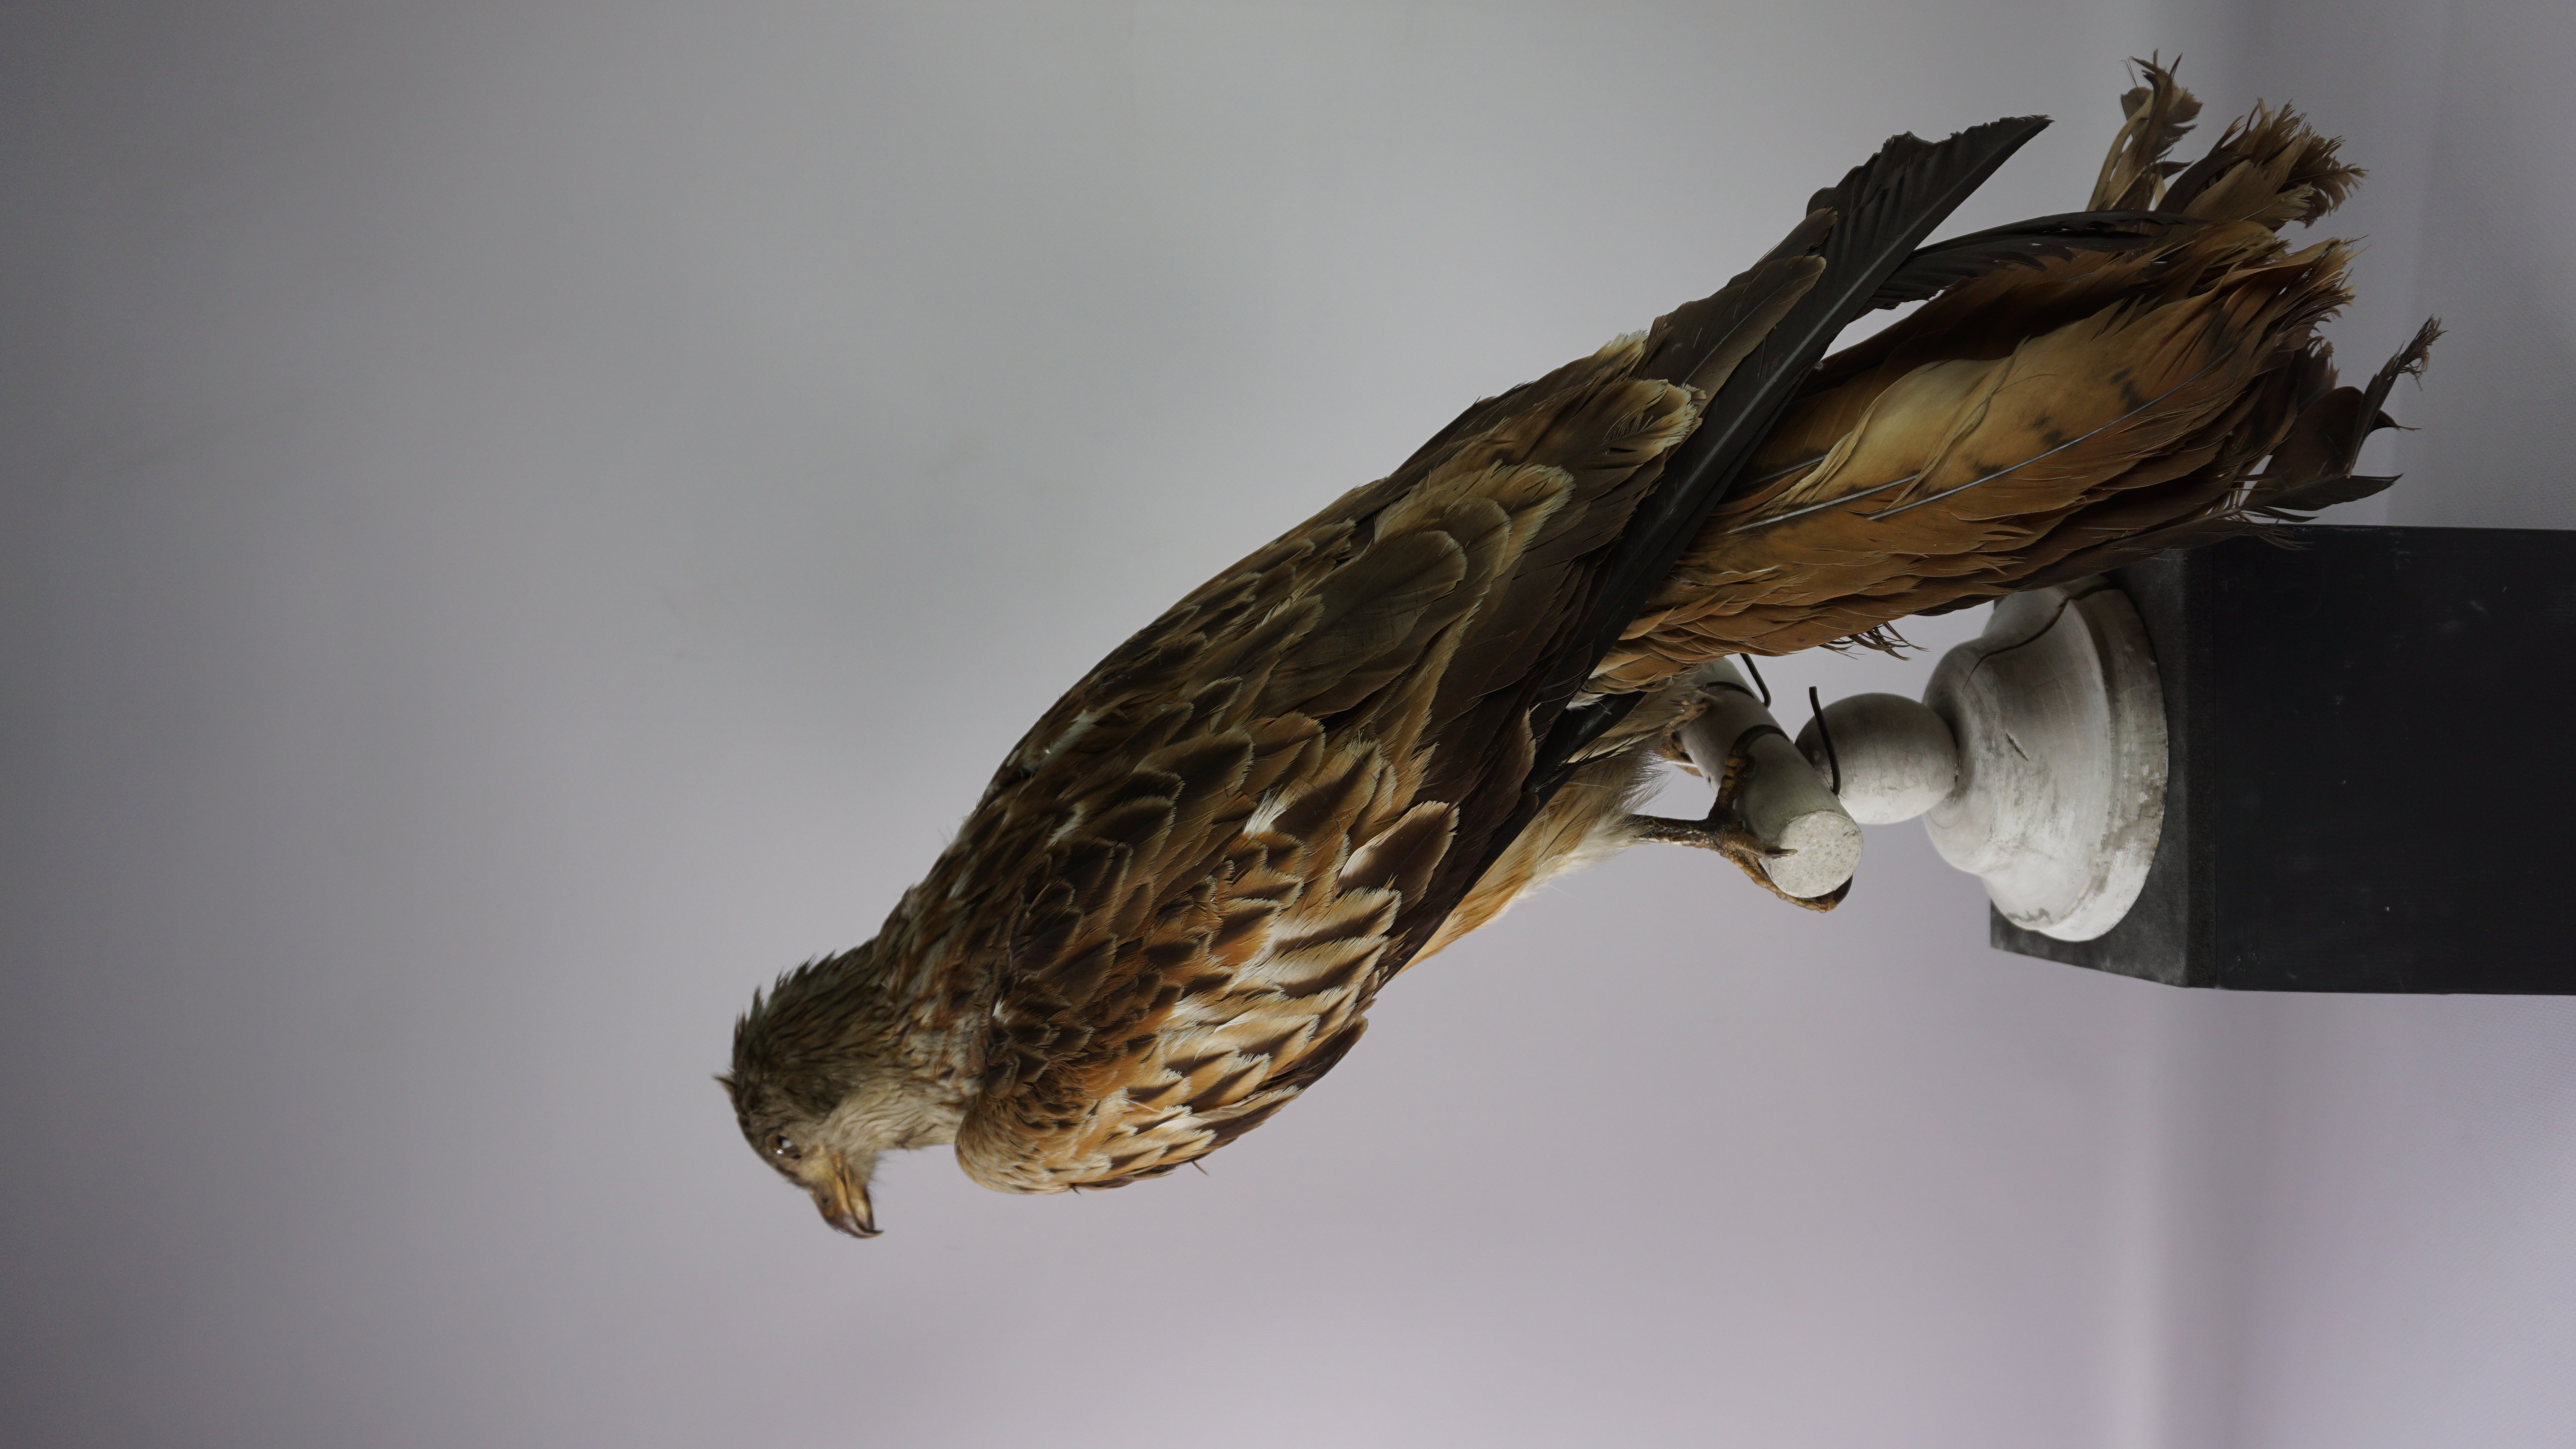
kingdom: Animalia
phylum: Chordata
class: Aves
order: Accipitriformes
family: Accipitridae
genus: Milvus
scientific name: Milvus milvus
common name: Red kite
